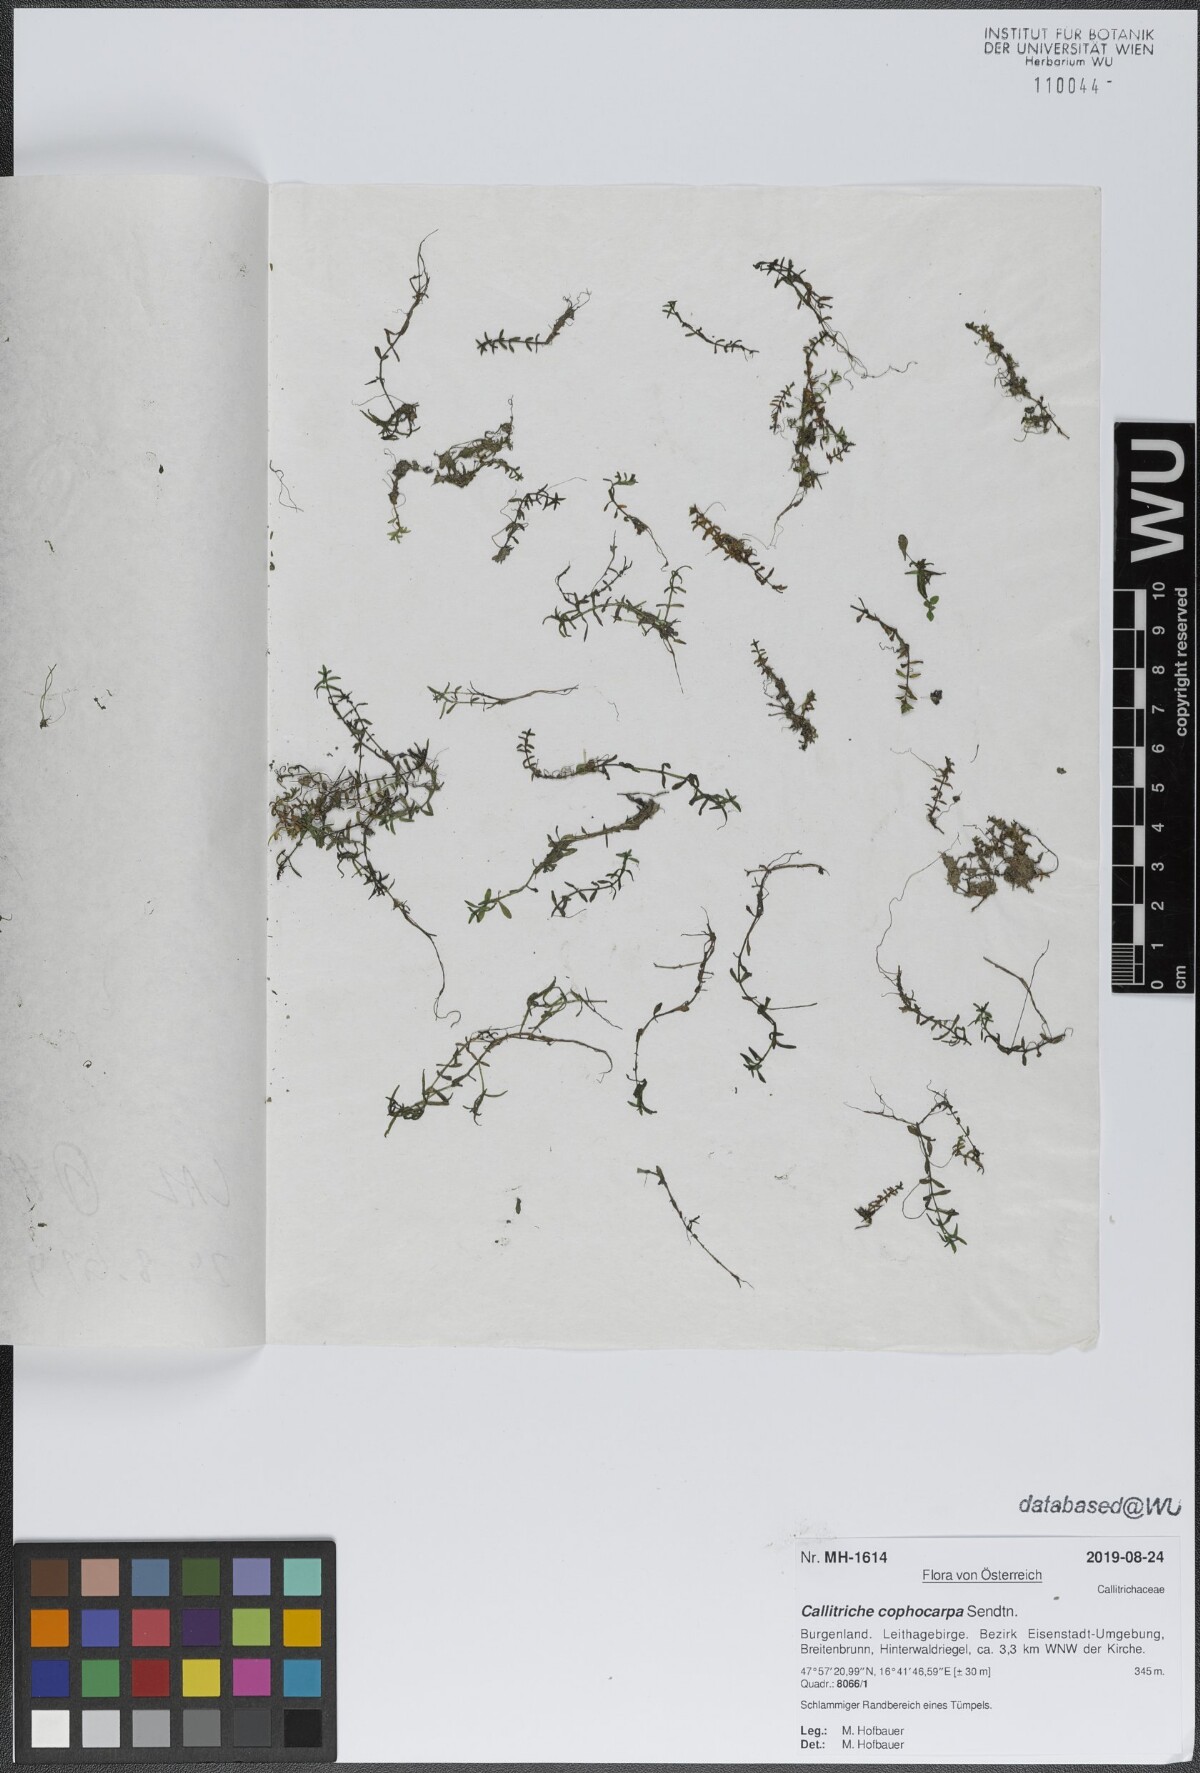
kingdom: Plantae
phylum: Tracheophyta
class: Magnoliopsida
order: Lamiales
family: Plantaginaceae
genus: Callitriche
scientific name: Callitriche cophocarpa
